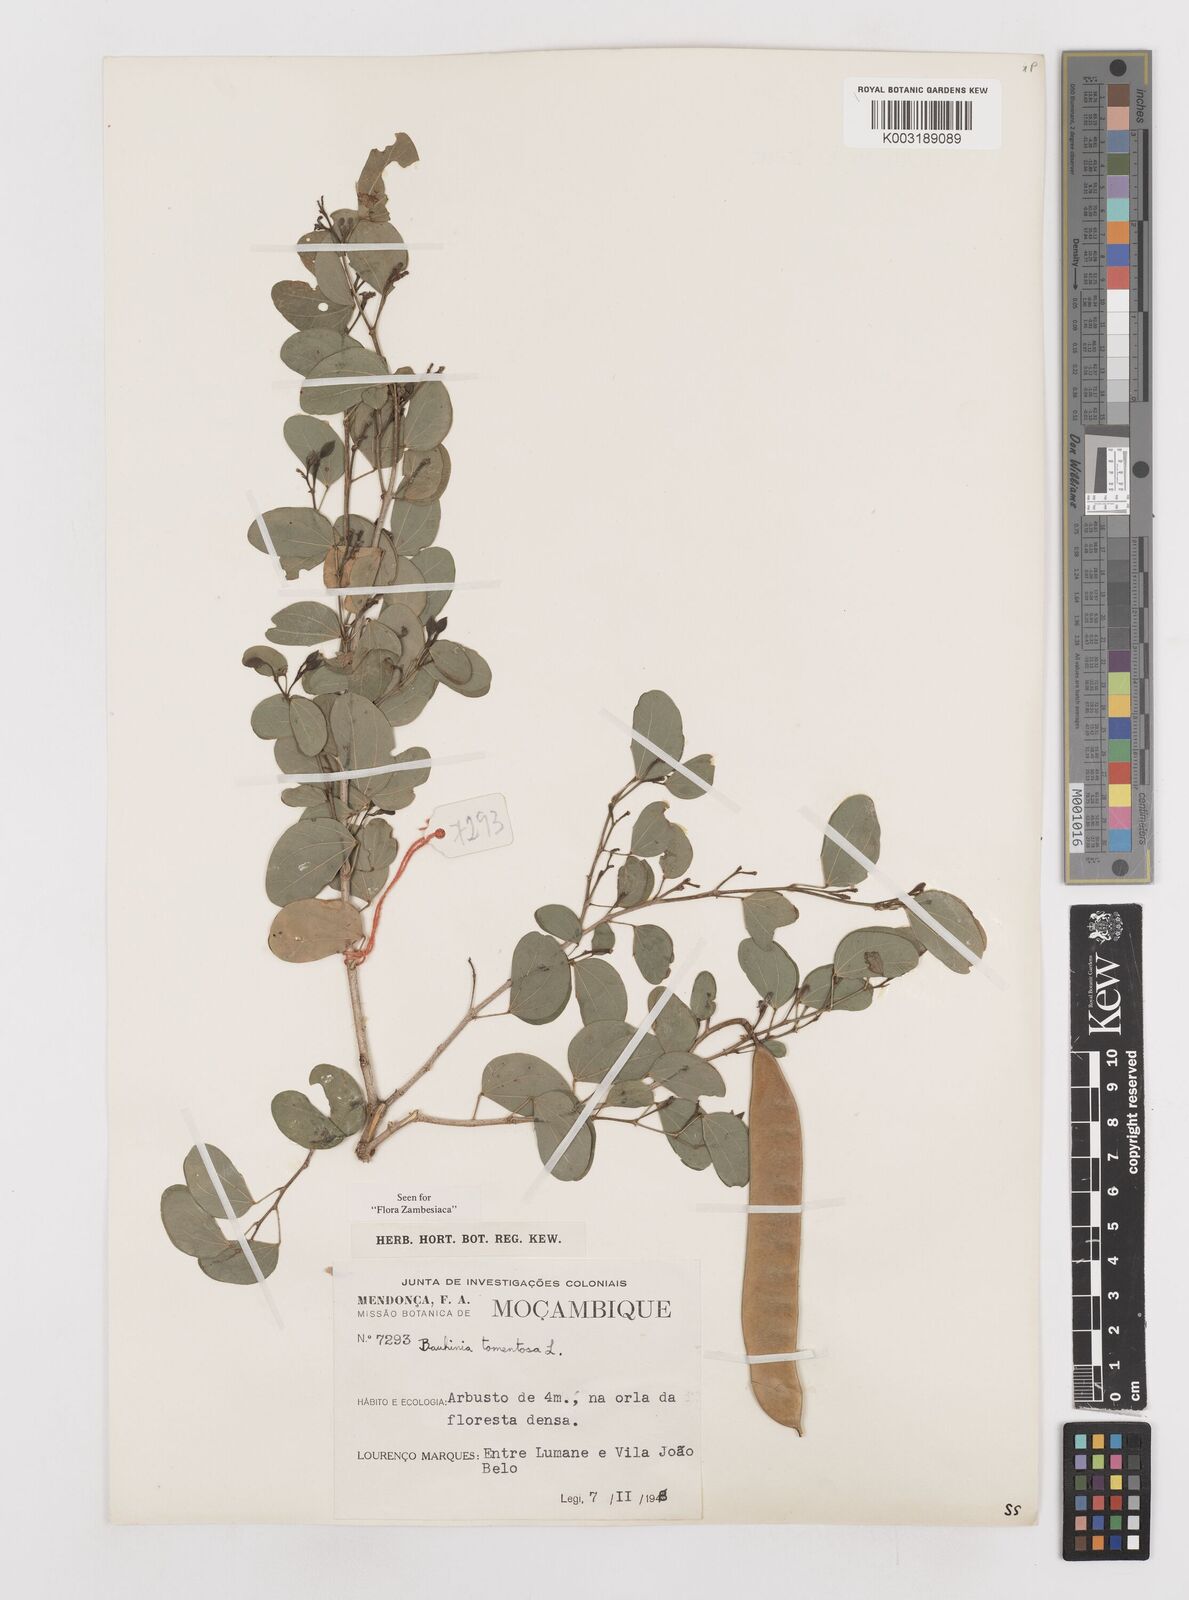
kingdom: Plantae
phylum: Tracheophyta
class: Magnoliopsida
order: Fabales
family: Fabaceae
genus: Bauhinia
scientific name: Bauhinia tomentosa
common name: Bell bauhinia
